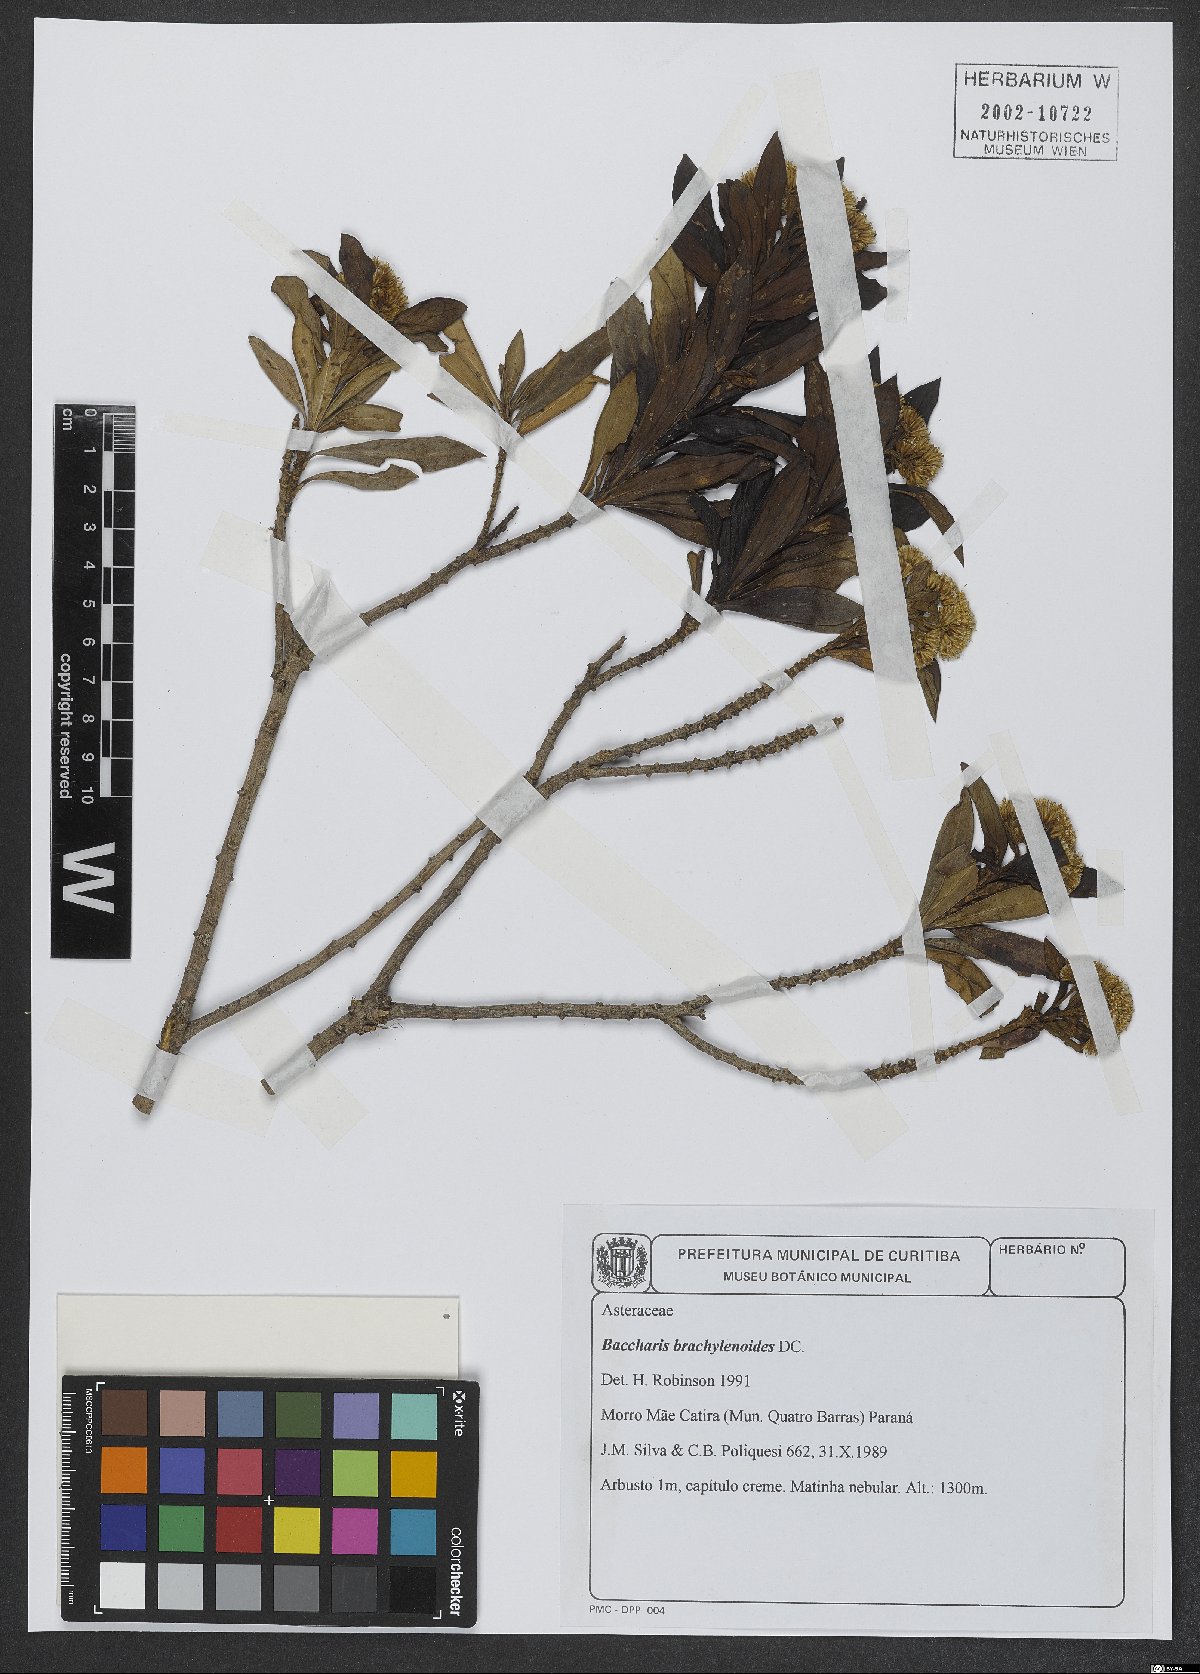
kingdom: Plantae
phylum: Tracheophyta
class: Magnoliopsida
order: Asterales
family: Asteraceae
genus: Baccharis
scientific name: Baccharis oblongifolia
